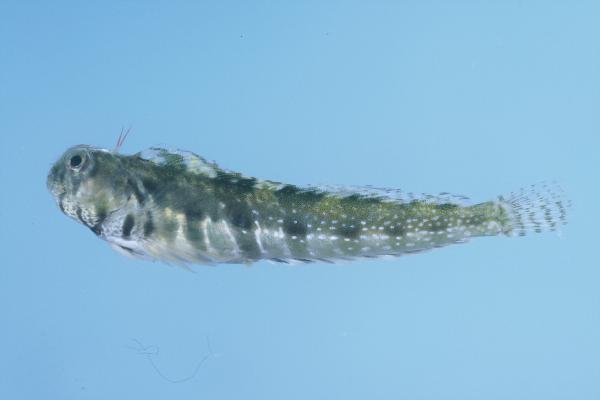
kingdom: Animalia
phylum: Chordata
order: Perciformes
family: Blenniidae
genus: Antennablennius
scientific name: Antennablennius bifilum
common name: Horned rockskipper
